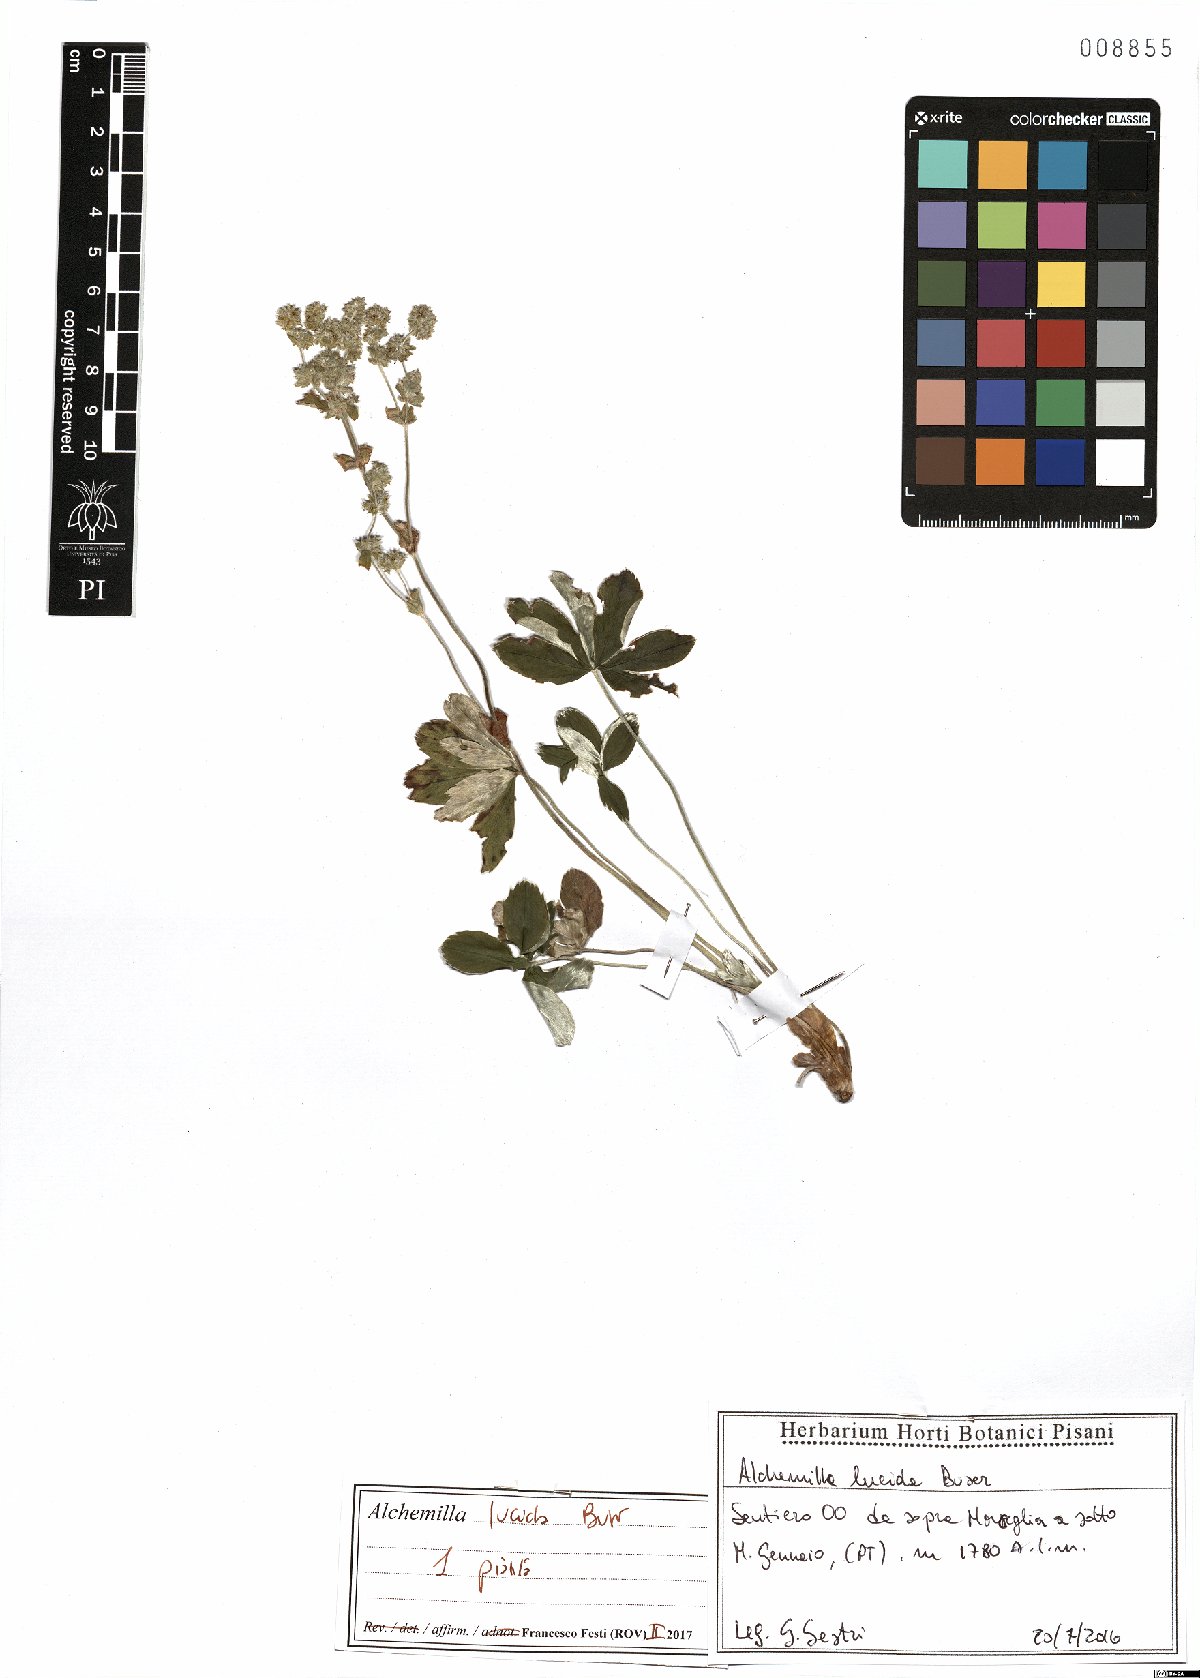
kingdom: Plantae
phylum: Tracheophyta
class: Magnoliopsida
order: Rosales
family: Rosaceae
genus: Alchemilla
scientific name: Alchemilla lucida
